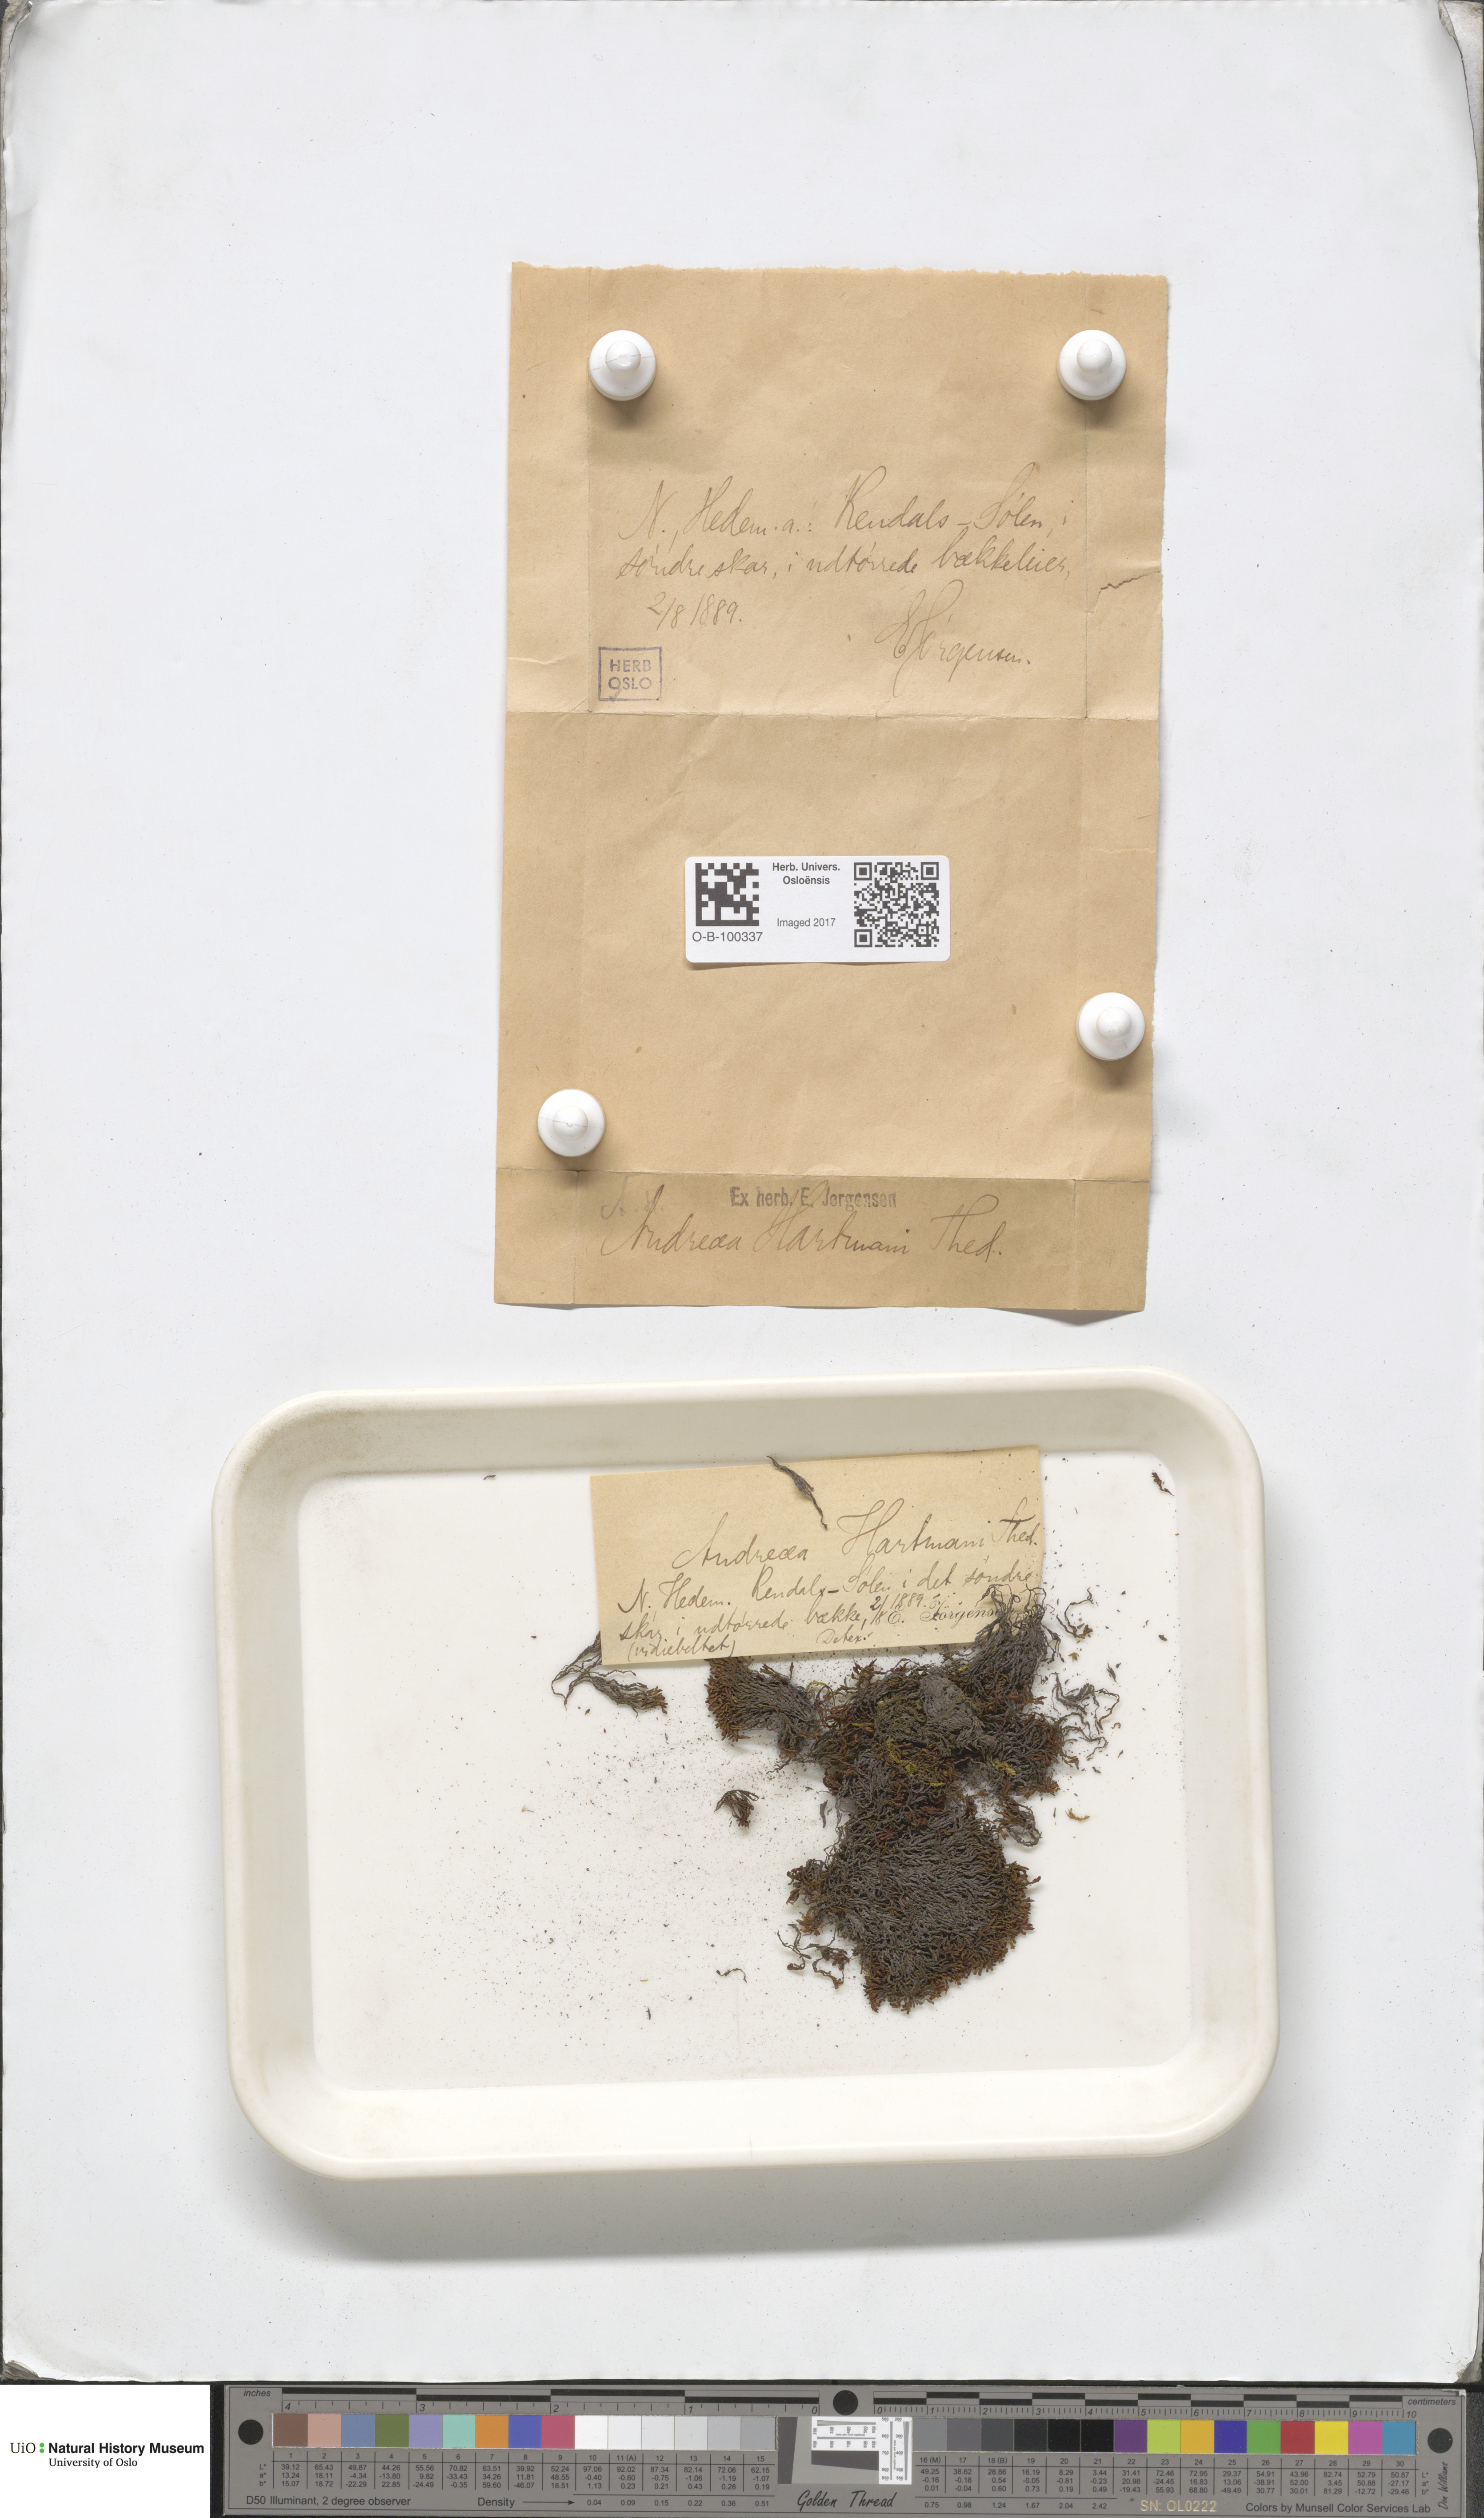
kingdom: Plantae
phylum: Bryophyta
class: Andreaeopsida
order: Andreaeales
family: Andreaeaceae
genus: Andreaea
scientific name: Andreaea alpina
